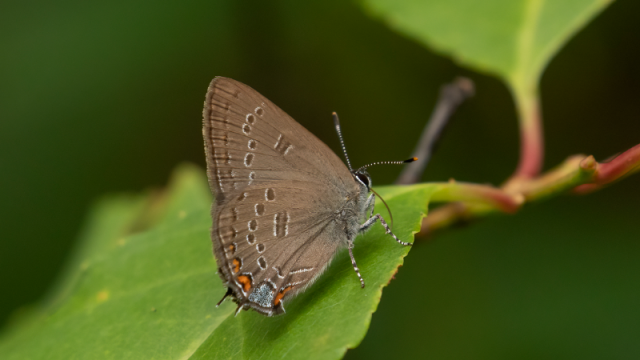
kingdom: Animalia
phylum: Arthropoda
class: Insecta
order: Lepidoptera
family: Lycaenidae
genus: Satyrium
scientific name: Satyrium edwardsii
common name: Edwards' Hairstreak
